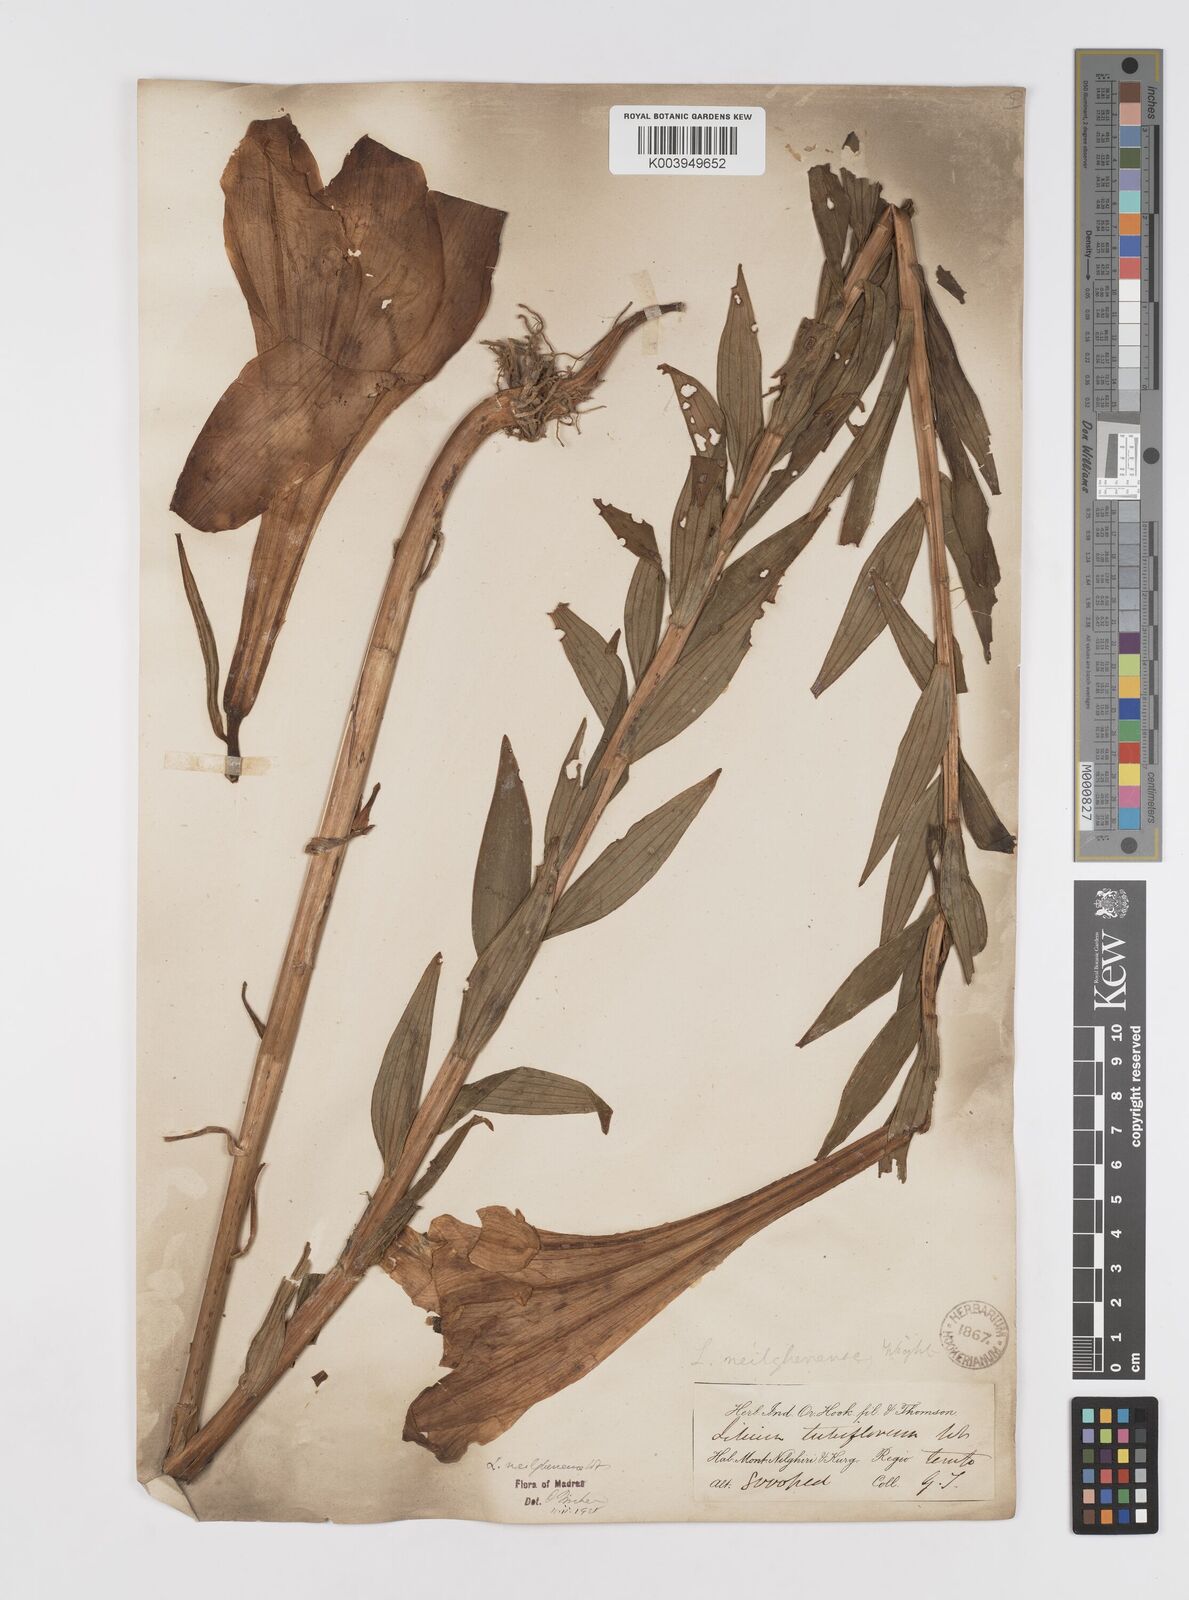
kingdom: Plantae
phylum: Tracheophyta
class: Liliopsida
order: Liliales
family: Liliaceae
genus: Lilium
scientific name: Lilium wallichianum
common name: Wallich's lily
